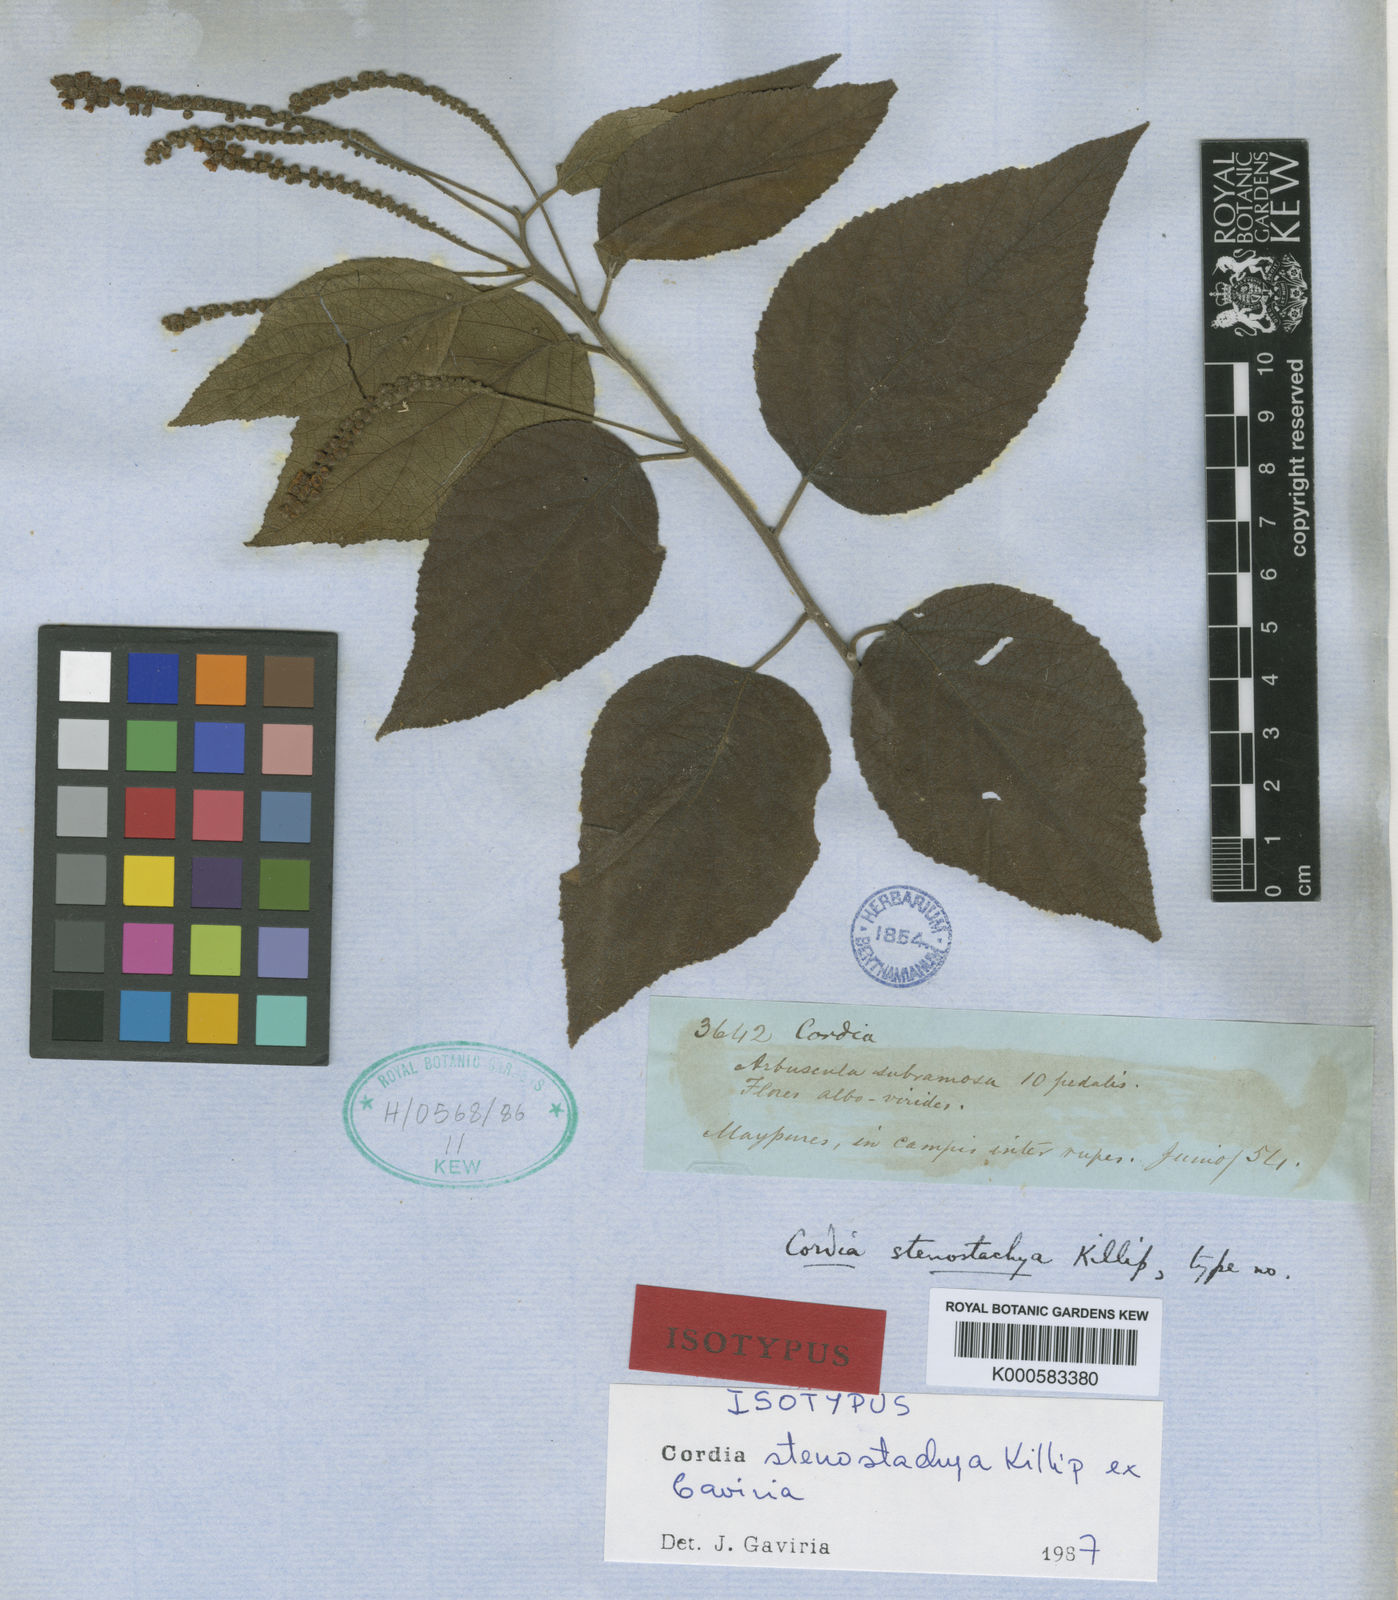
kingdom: Plantae
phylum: Tracheophyta
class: Magnoliopsida
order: Boraginales
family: Cordiaceae
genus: Varronia
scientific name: Varronia stenostachya
